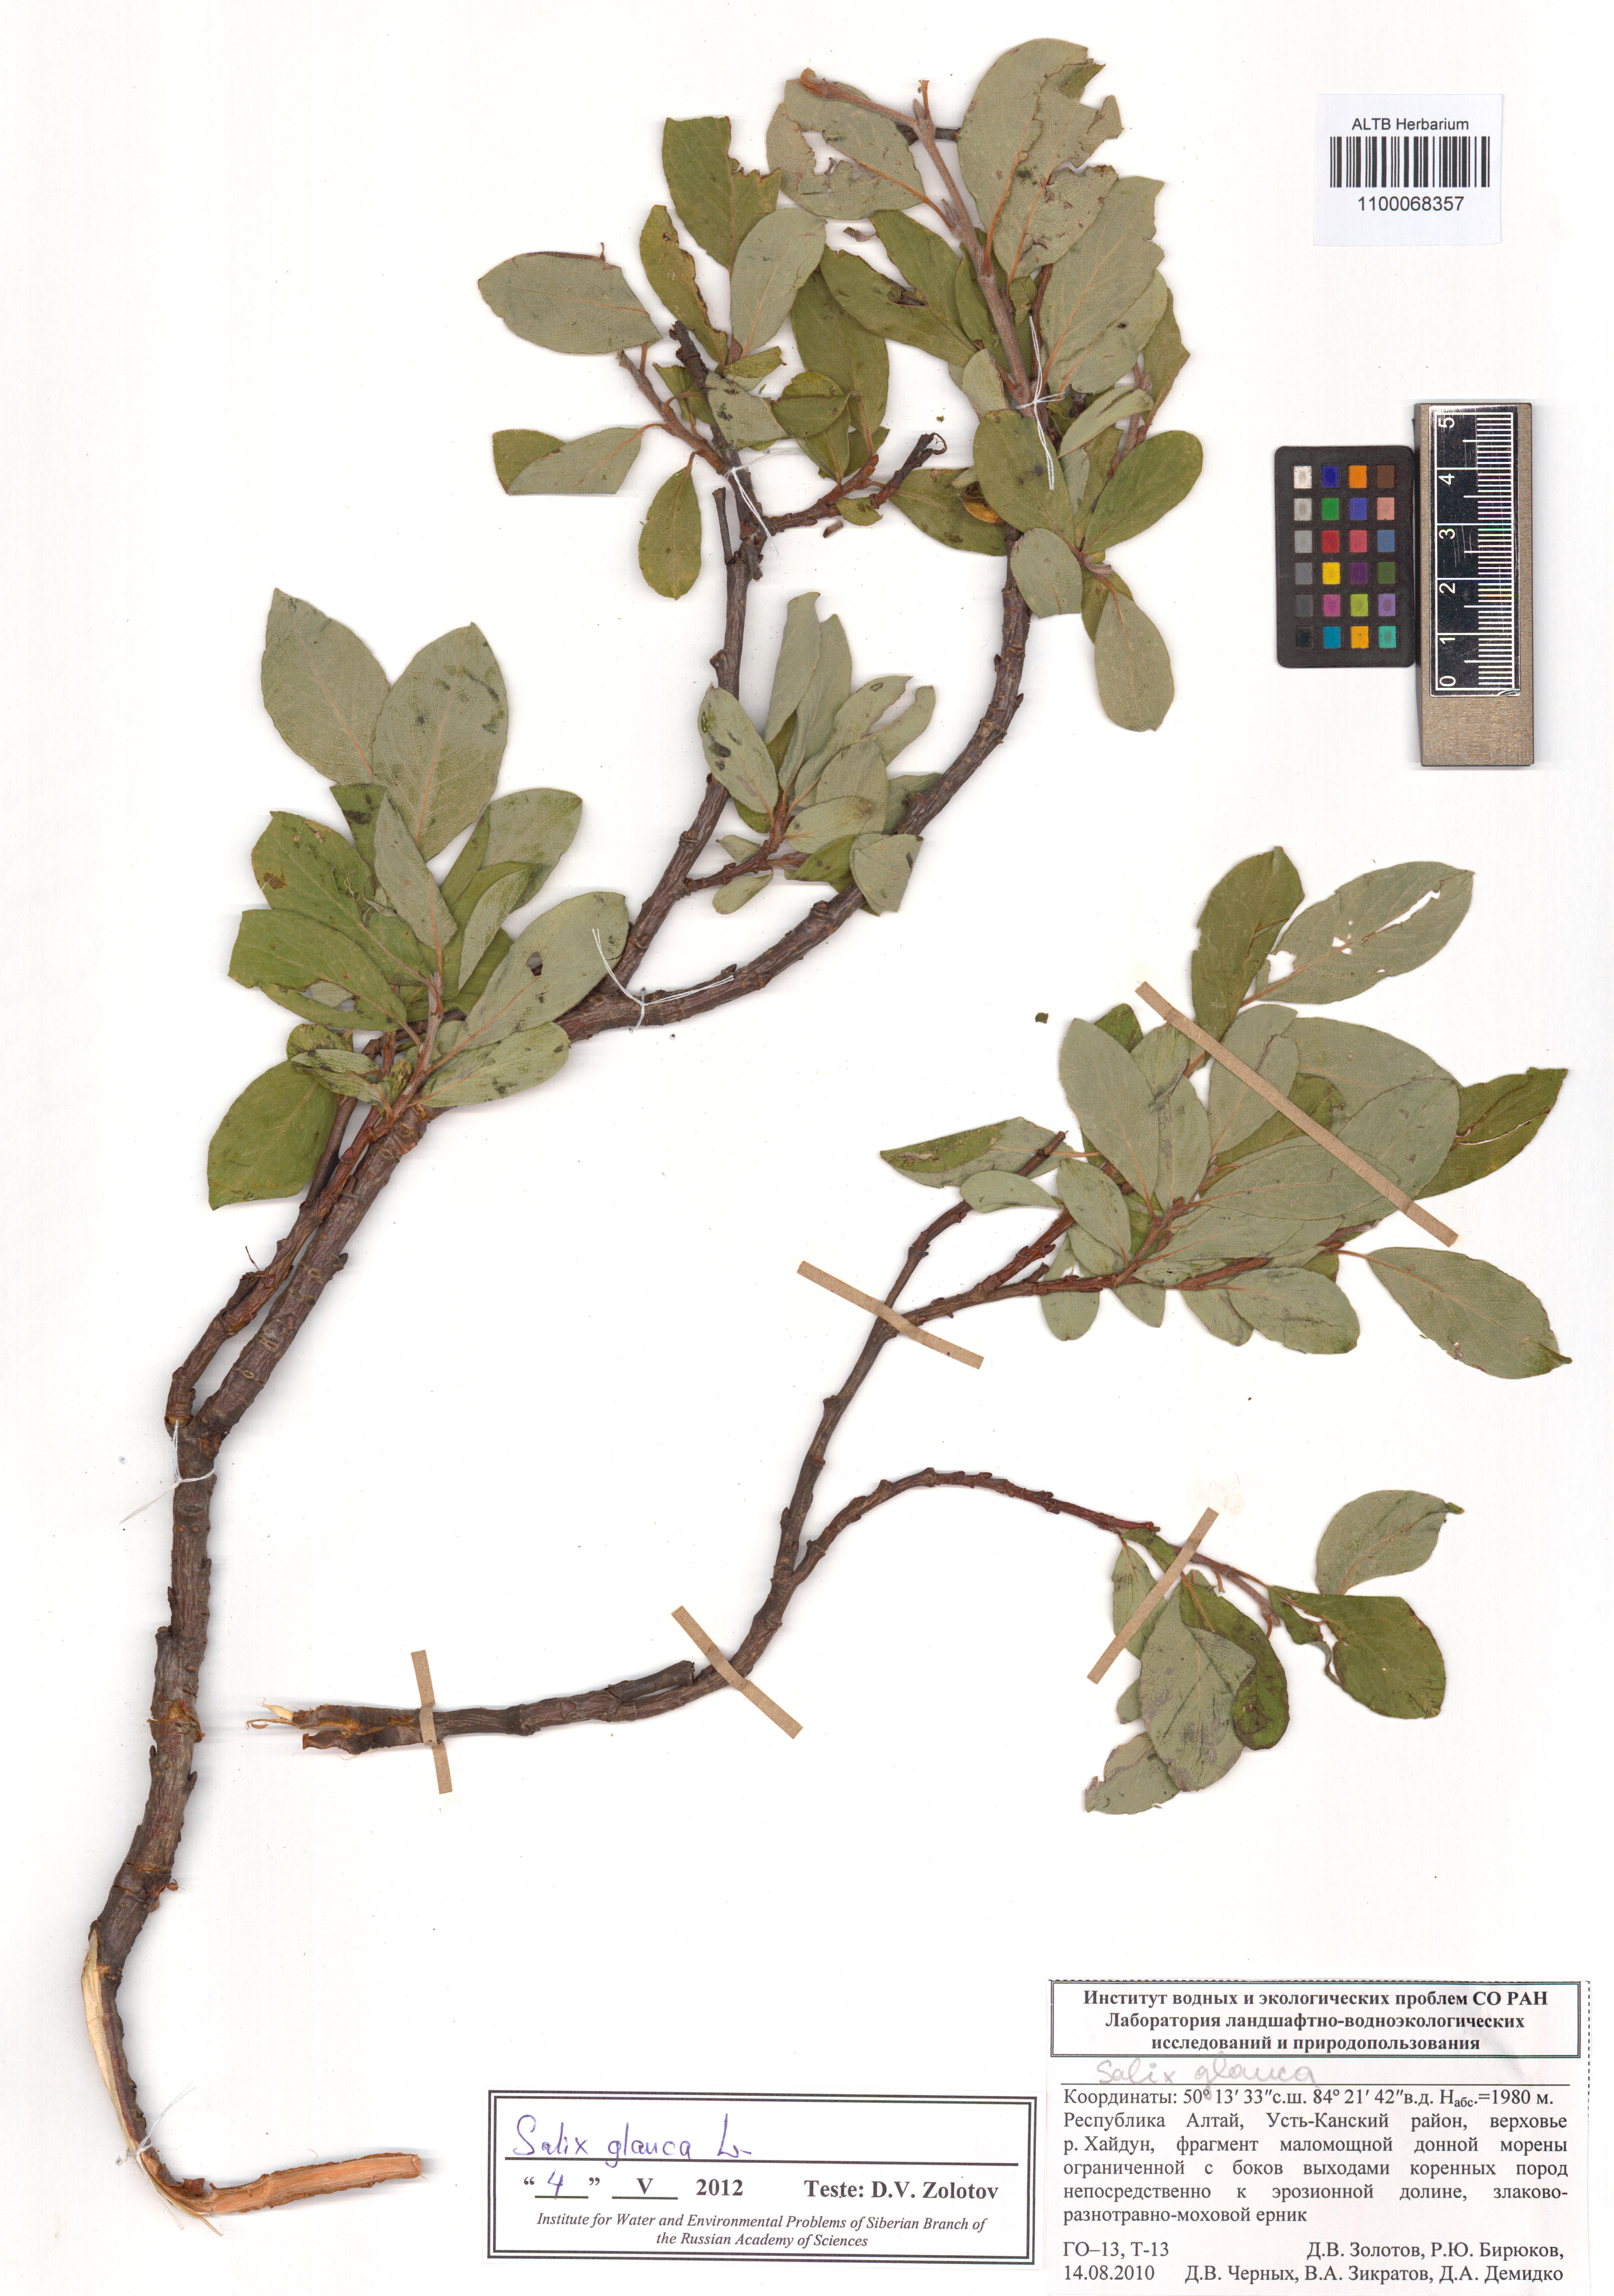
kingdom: Plantae
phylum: Tracheophyta
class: Magnoliopsida
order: Malpighiales
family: Salicaceae
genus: Salix
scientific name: Salix glauca
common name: Glaucous willow
